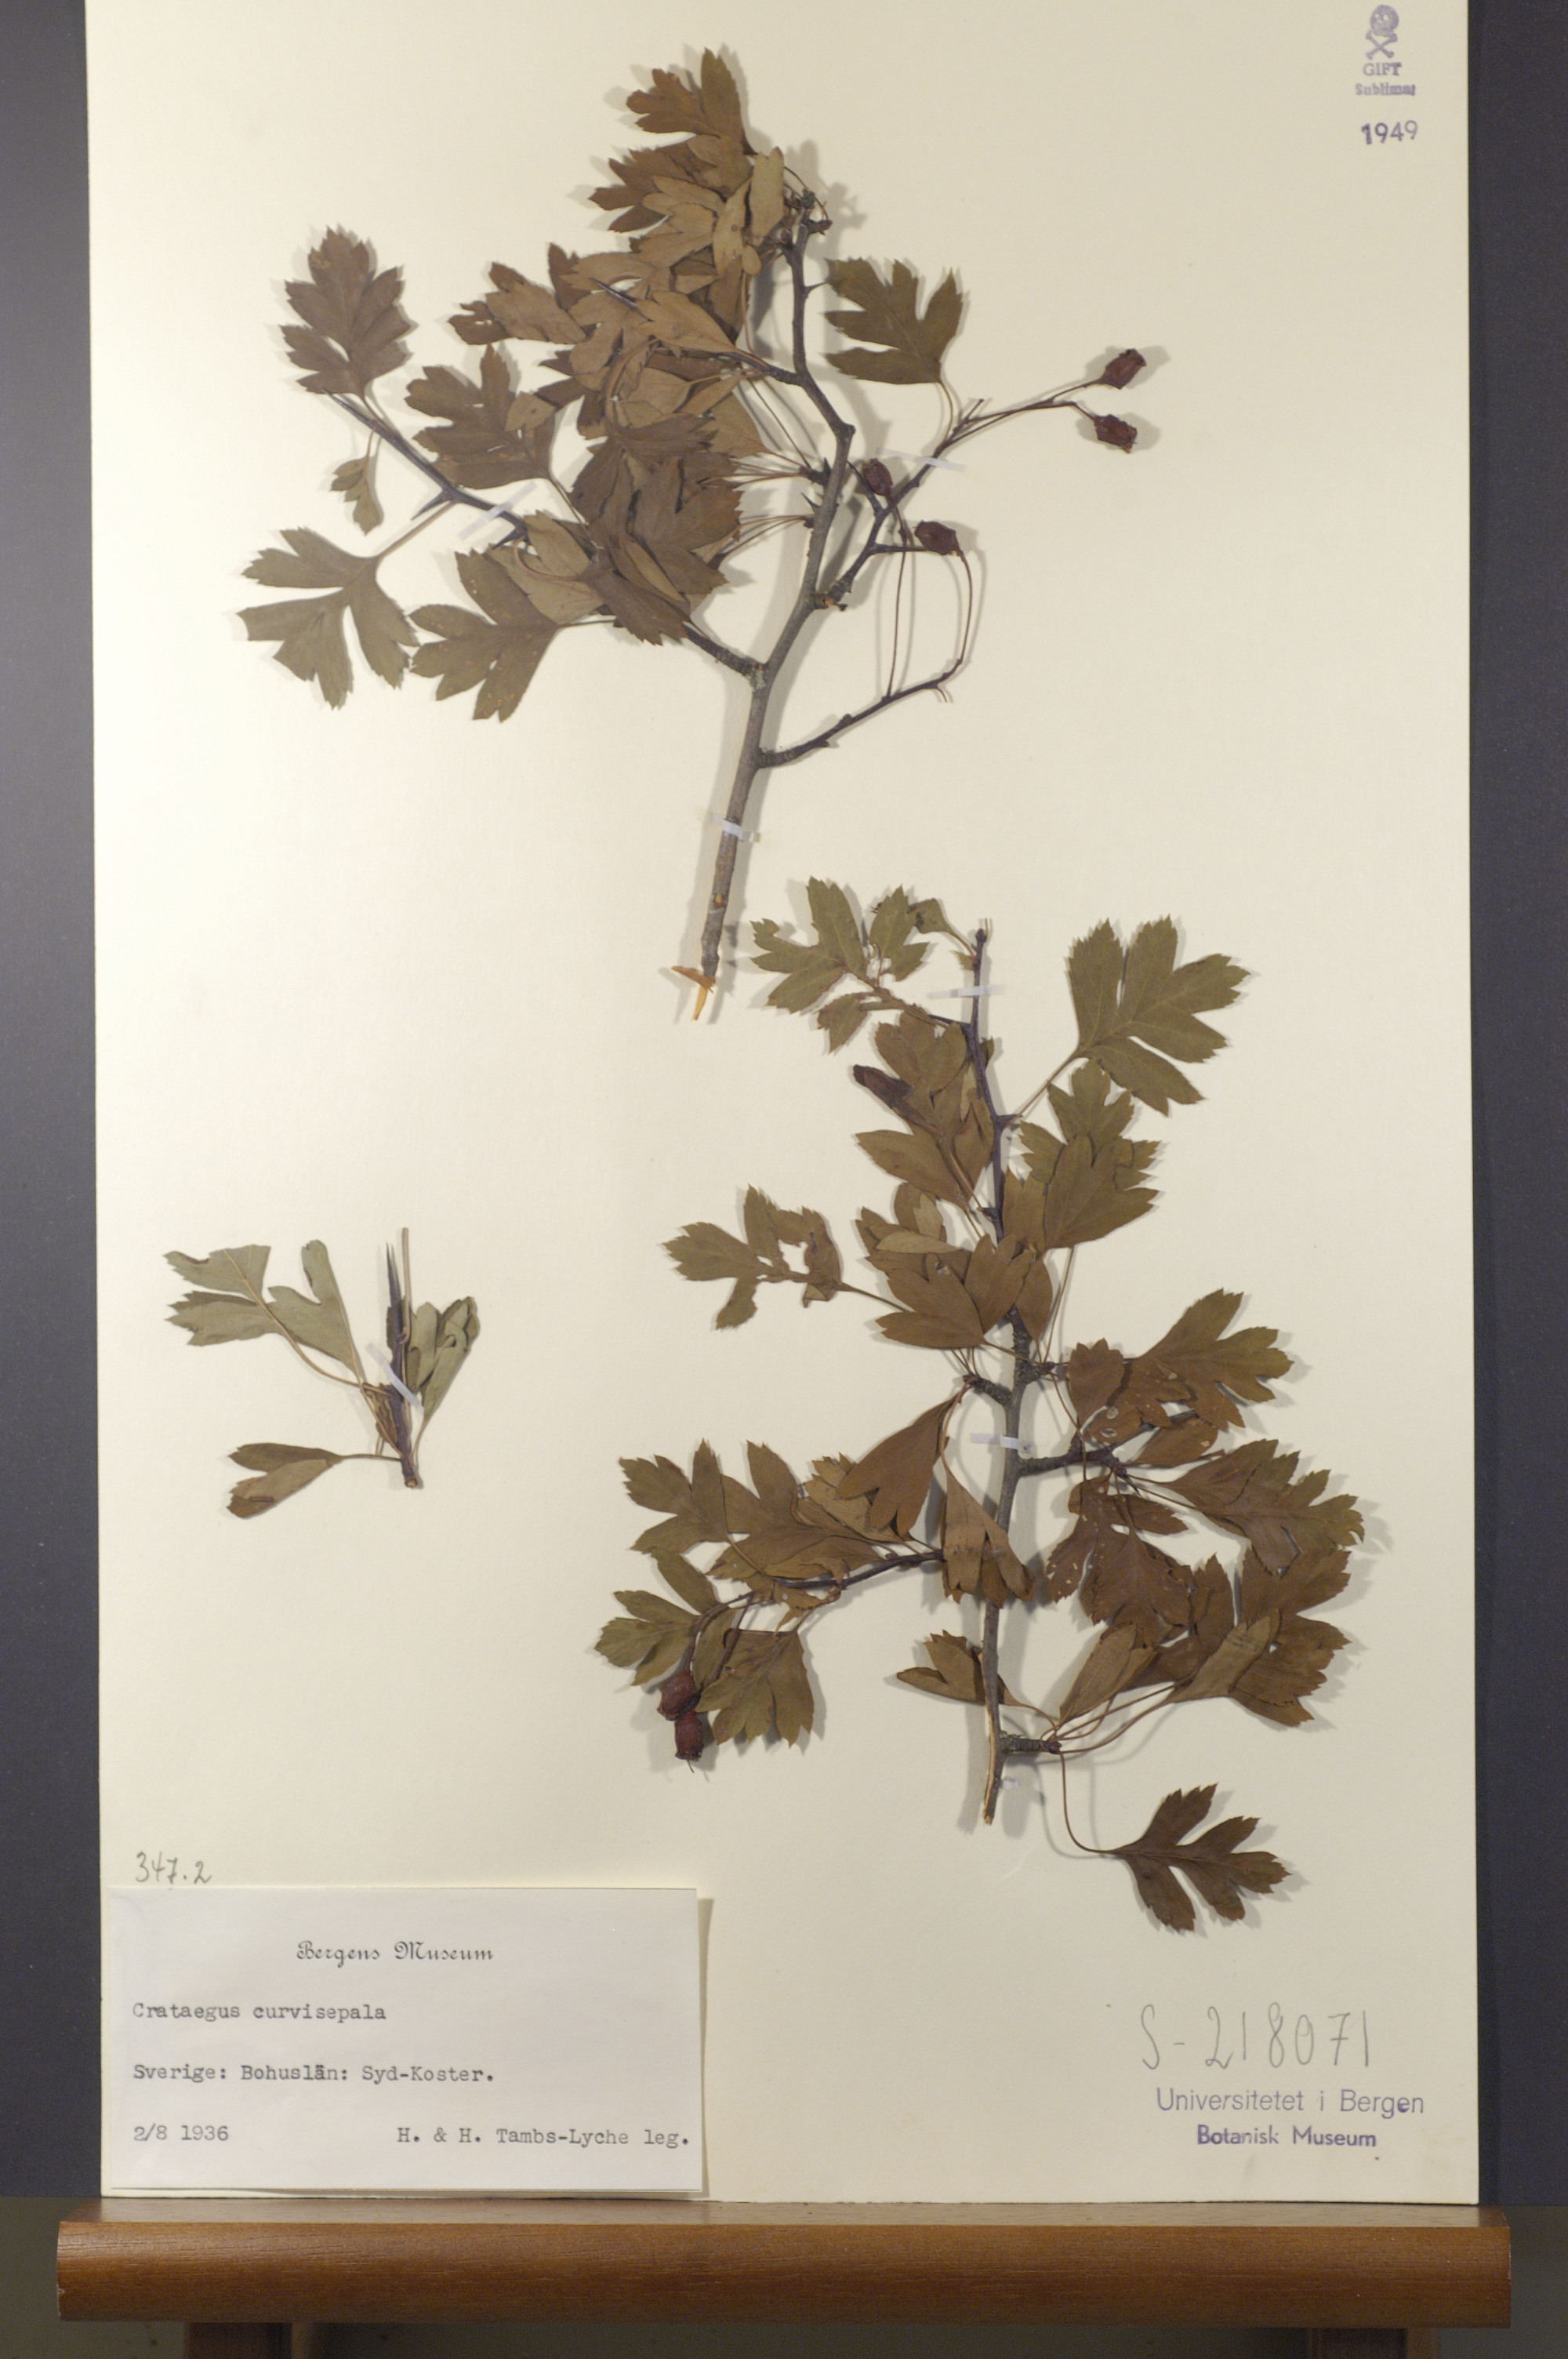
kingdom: Plantae
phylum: Tracheophyta
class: Magnoliopsida
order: Rosales
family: Rosaceae
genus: Crataegus
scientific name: Crataegus rhipidophylla
